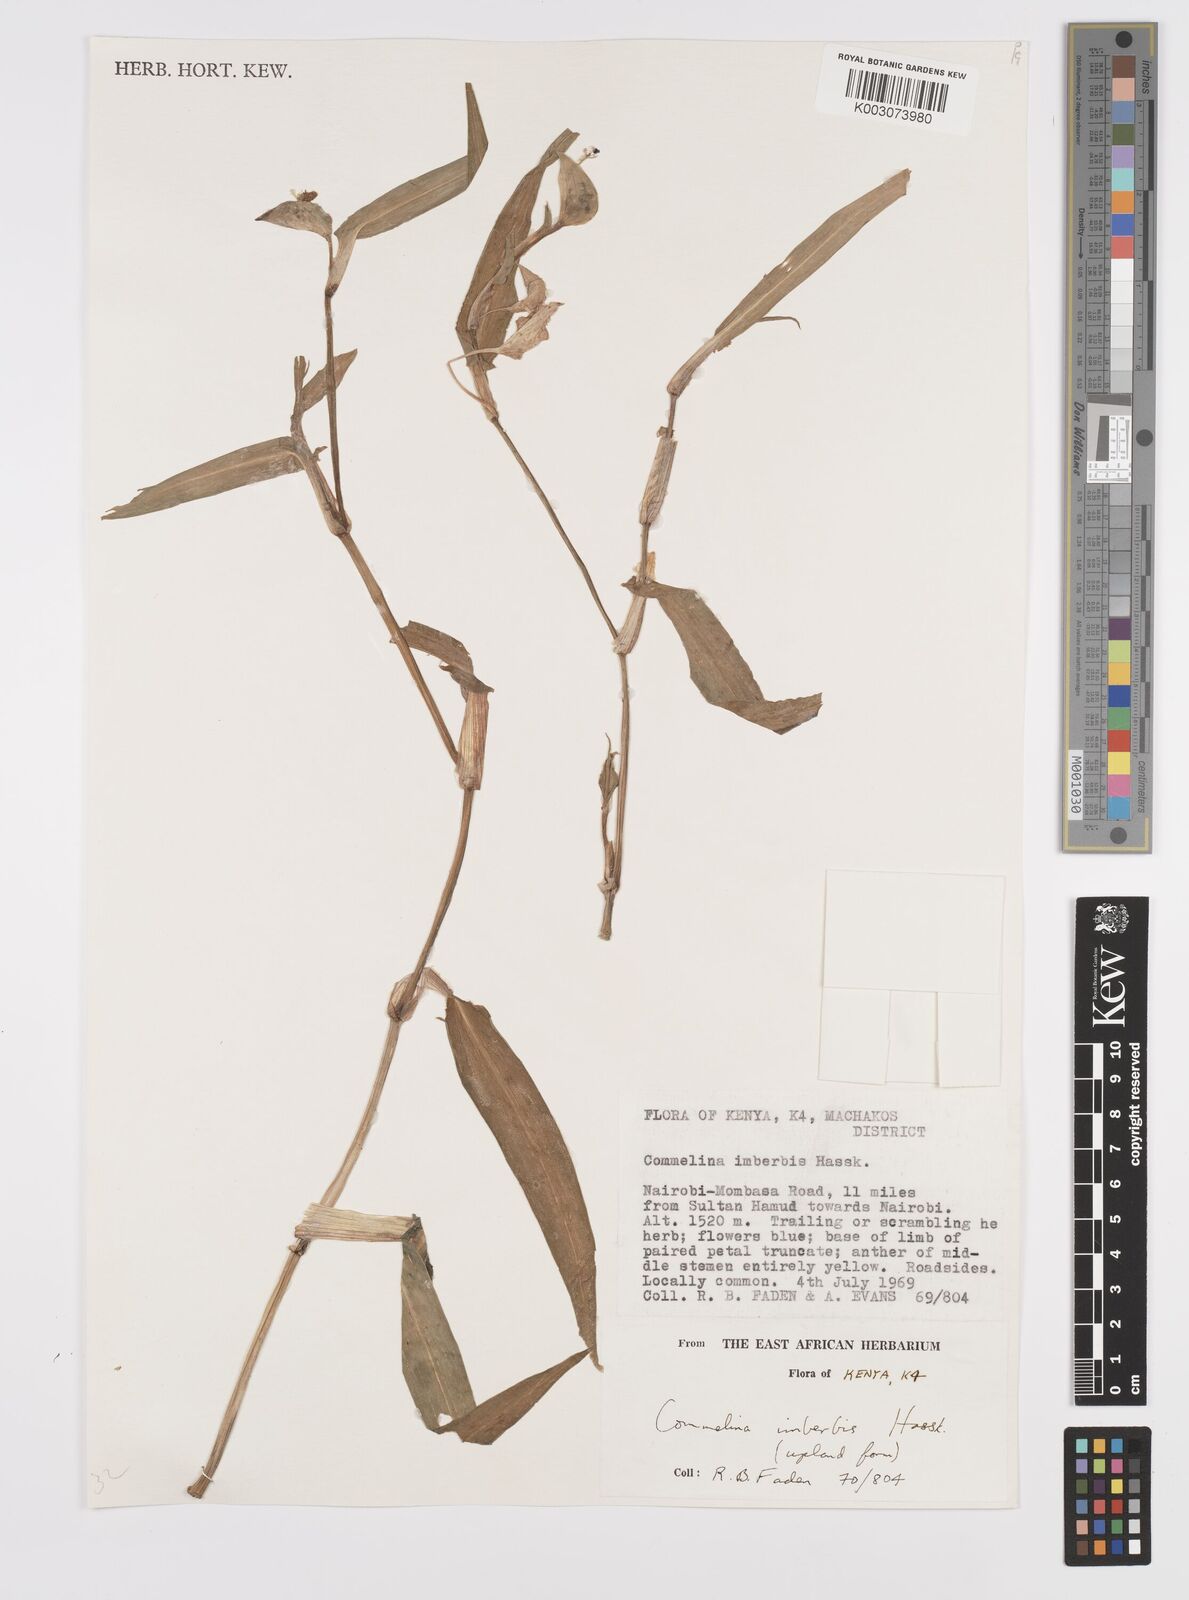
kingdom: Plantae
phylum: Tracheophyta
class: Liliopsida
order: Commelinales
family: Commelinaceae
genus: Commelina
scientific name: Commelina imberbis
